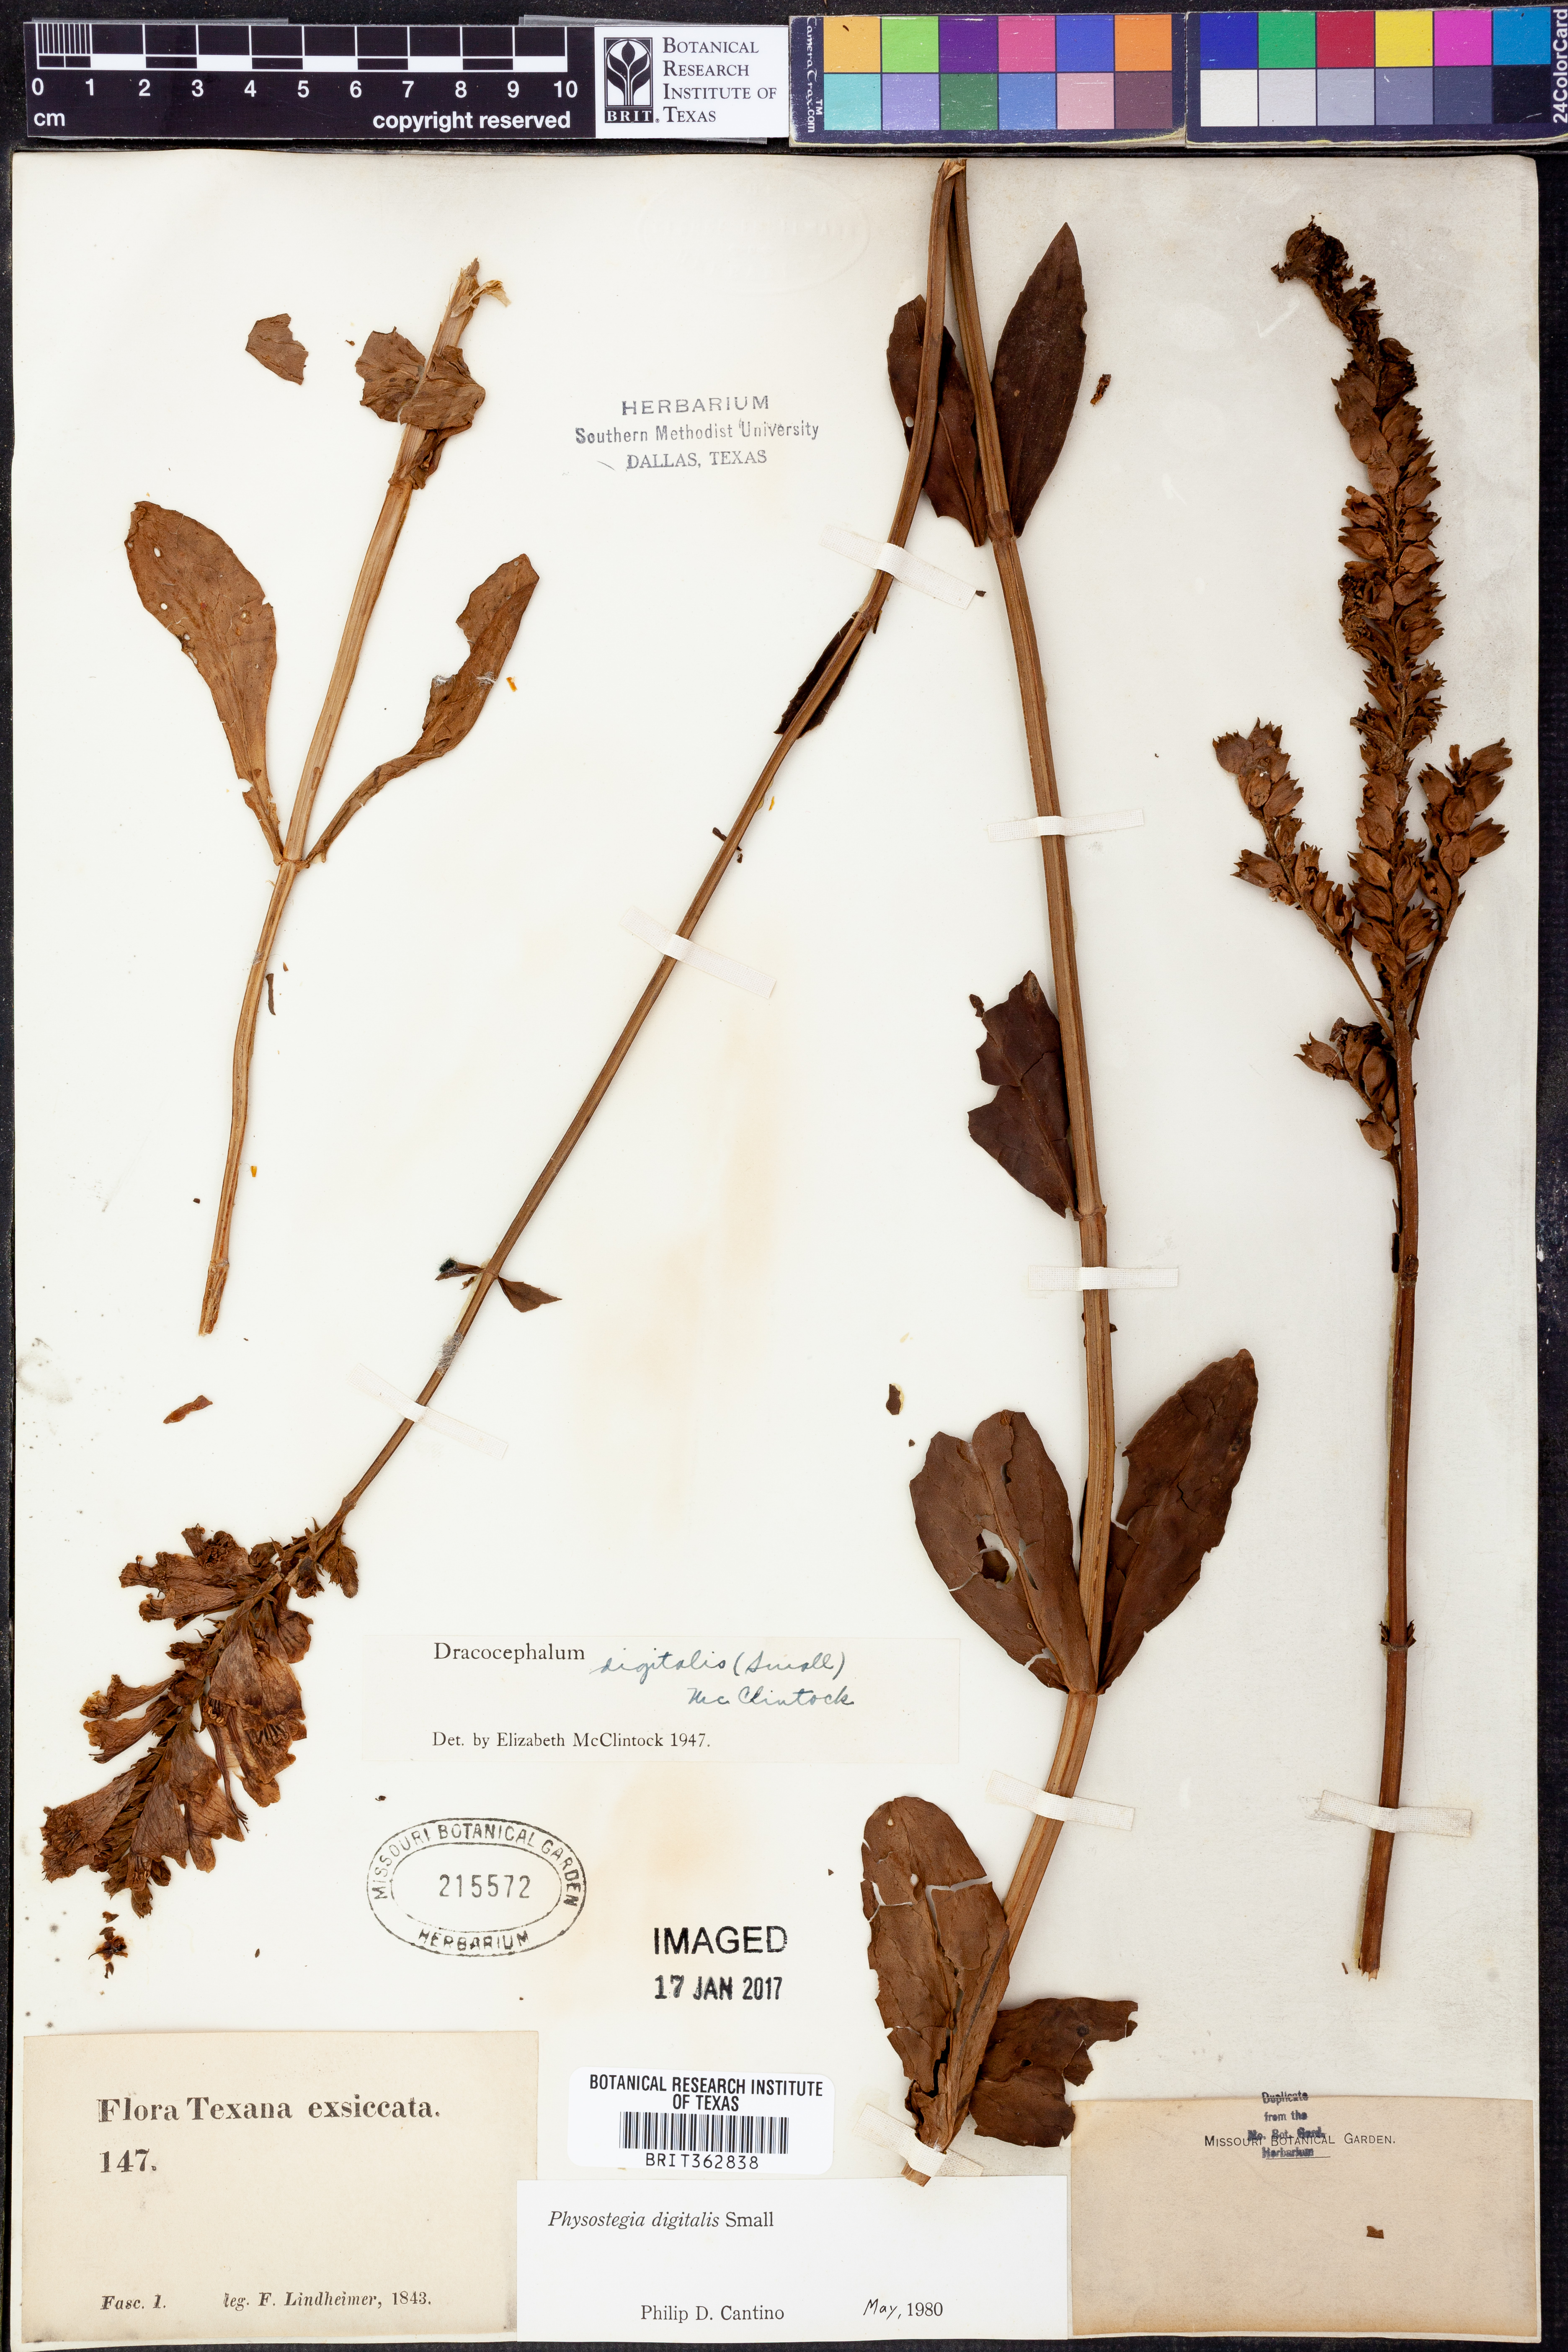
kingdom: Plantae
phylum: Tracheophyta
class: Magnoliopsida
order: Lamiales
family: Lamiaceae
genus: Physostegia
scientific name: Physostegia digitalis
